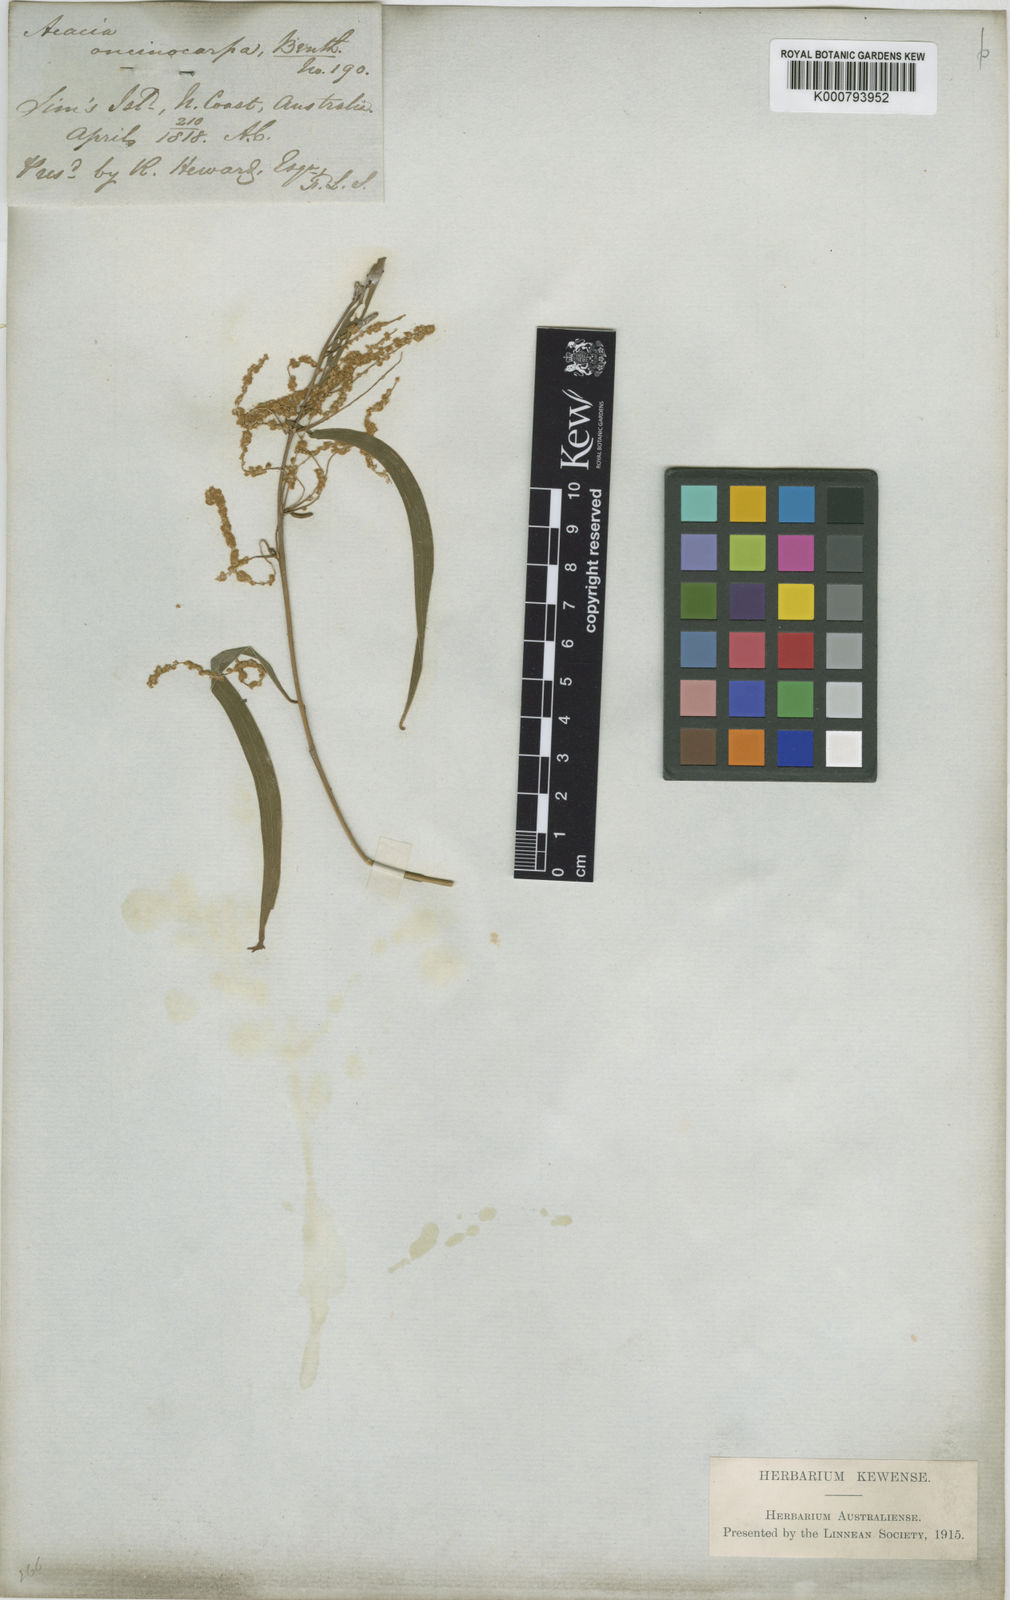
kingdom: Plantae
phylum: Tracheophyta
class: Magnoliopsida
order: Fabales
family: Fabaceae
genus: Acacia
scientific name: Acacia oncinocarpa
